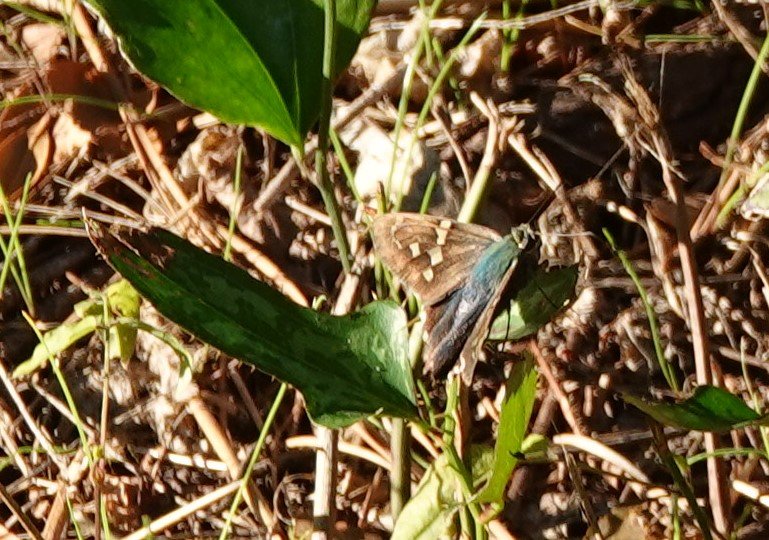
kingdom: Animalia
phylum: Arthropoda
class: Insecta
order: Lepidoptera
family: Hesperiidae
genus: Urbanus
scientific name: Urbanus proteus
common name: Long-tailed Skipper
